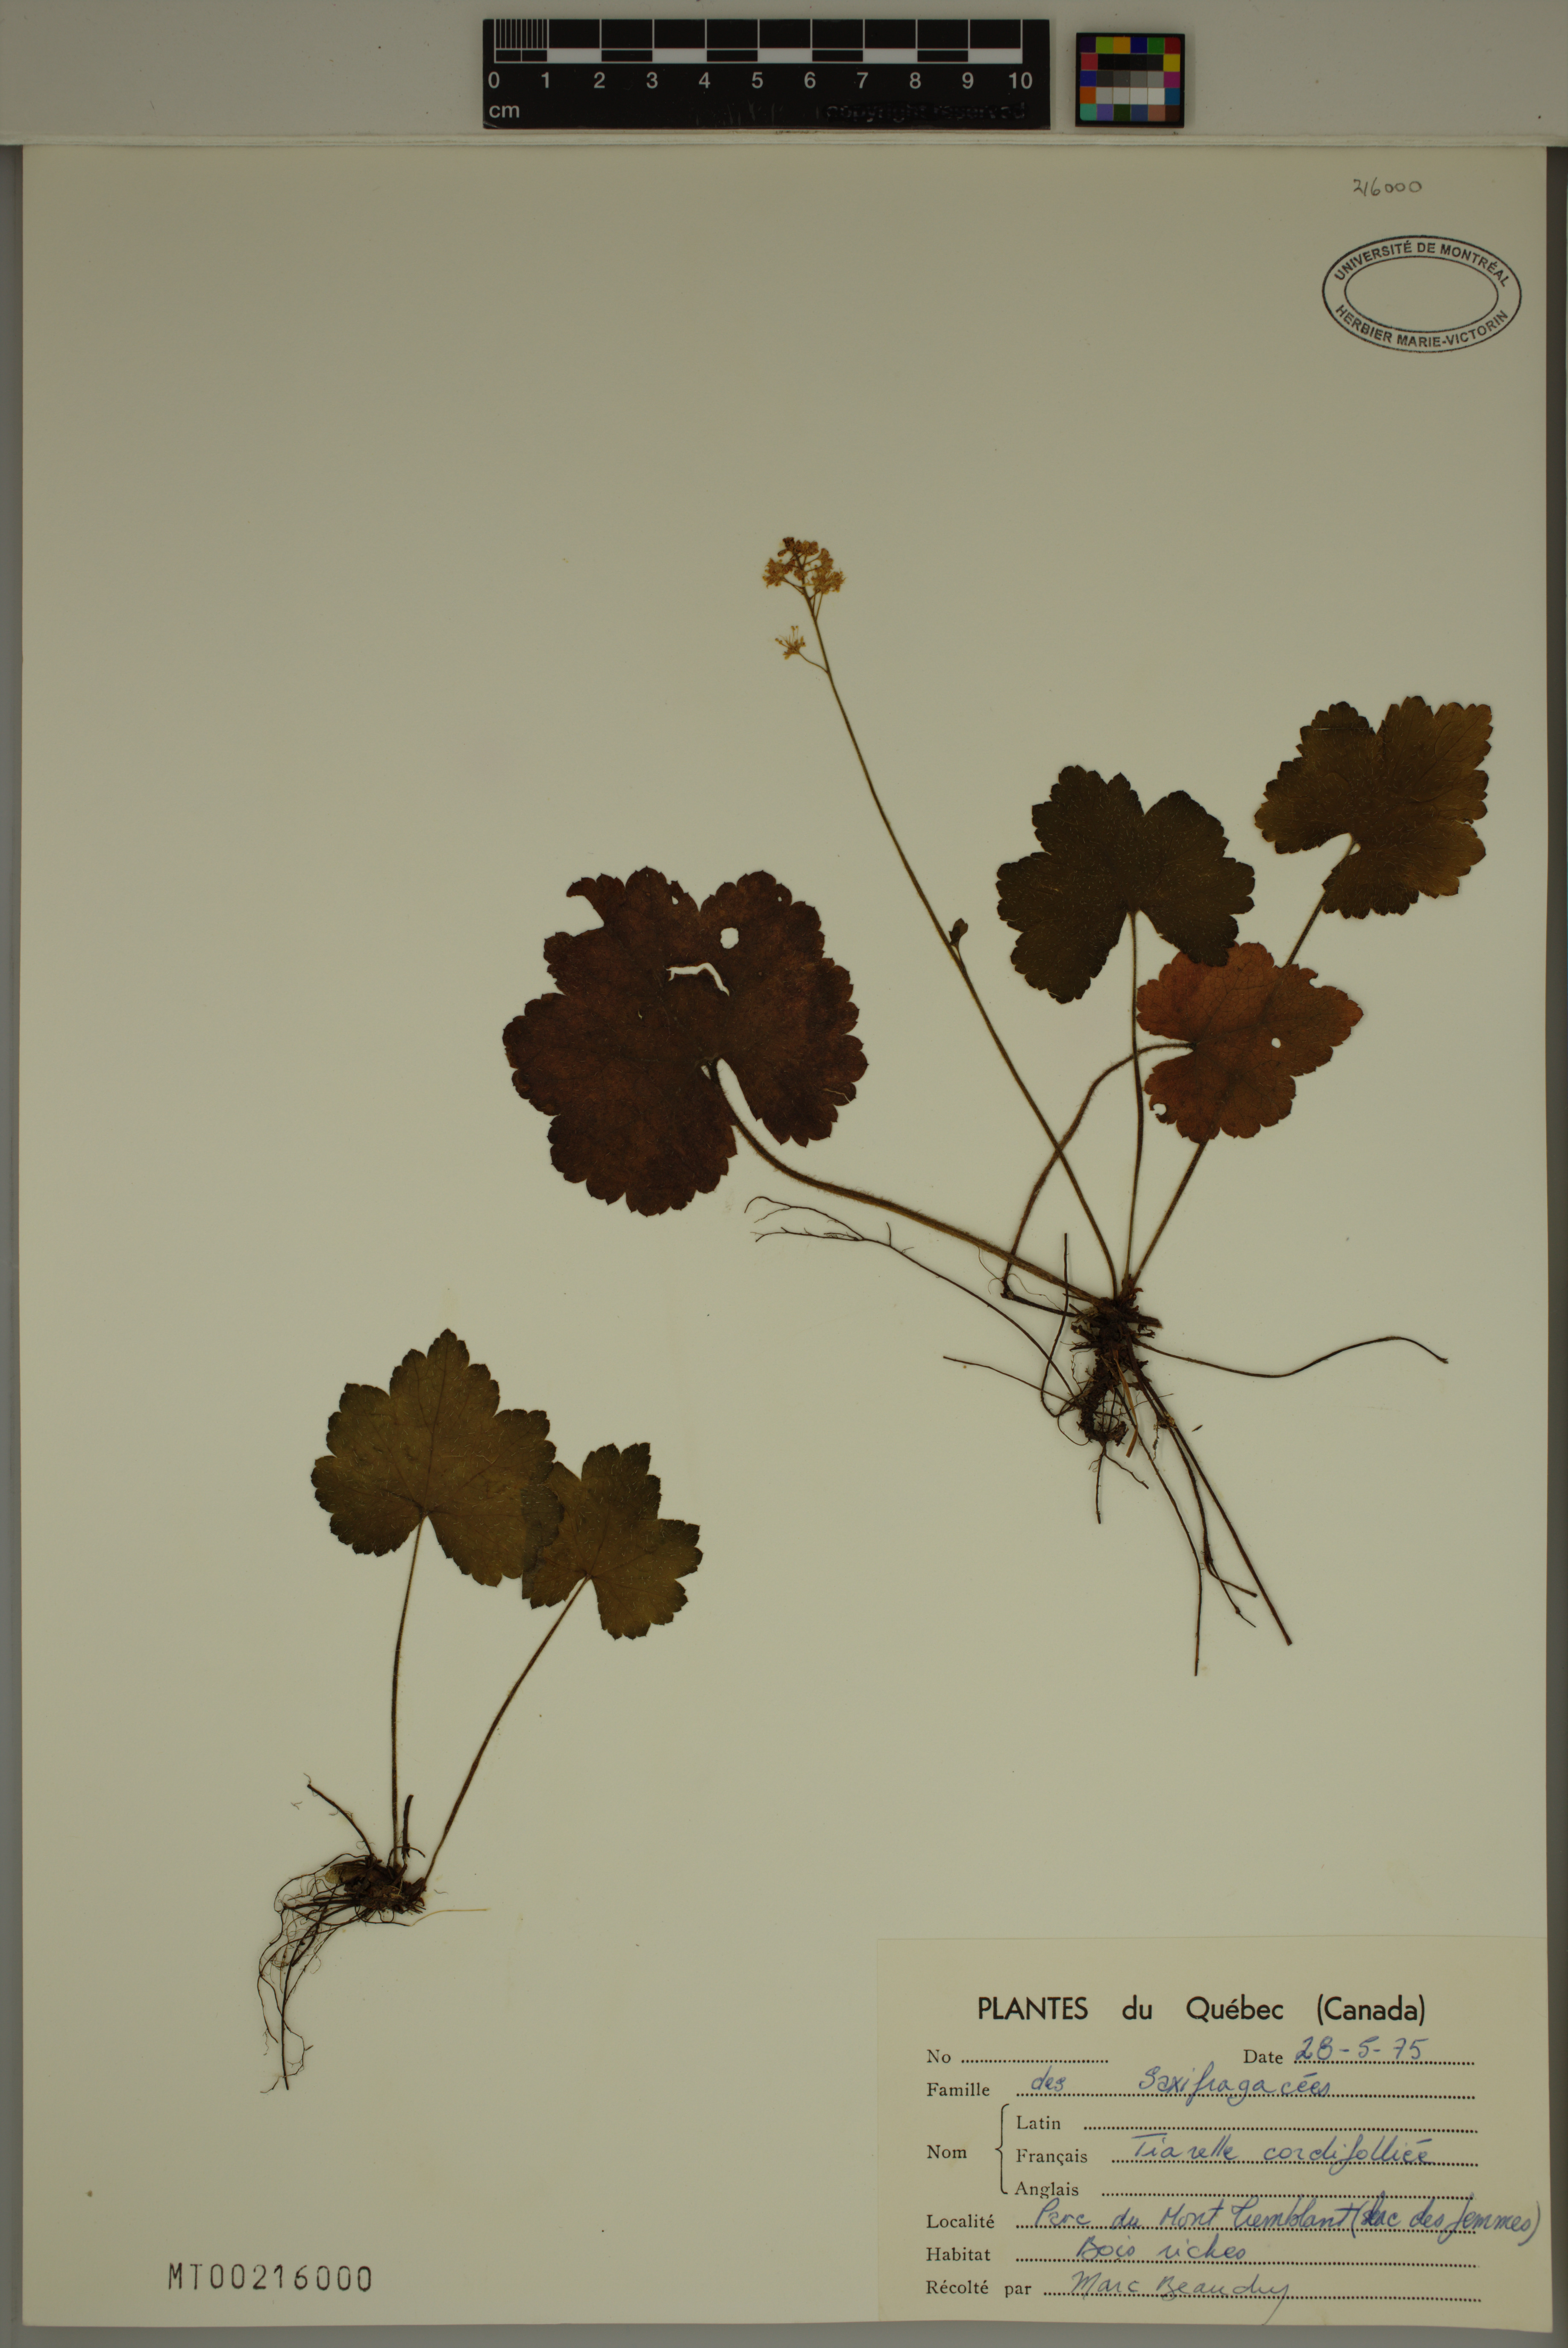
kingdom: Plantae
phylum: Tracheophyta
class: Magnoliopsida
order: Saxifragales
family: Saxifragaceae
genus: Tiarella
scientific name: Tiarella cordifolia
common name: Foamflower
